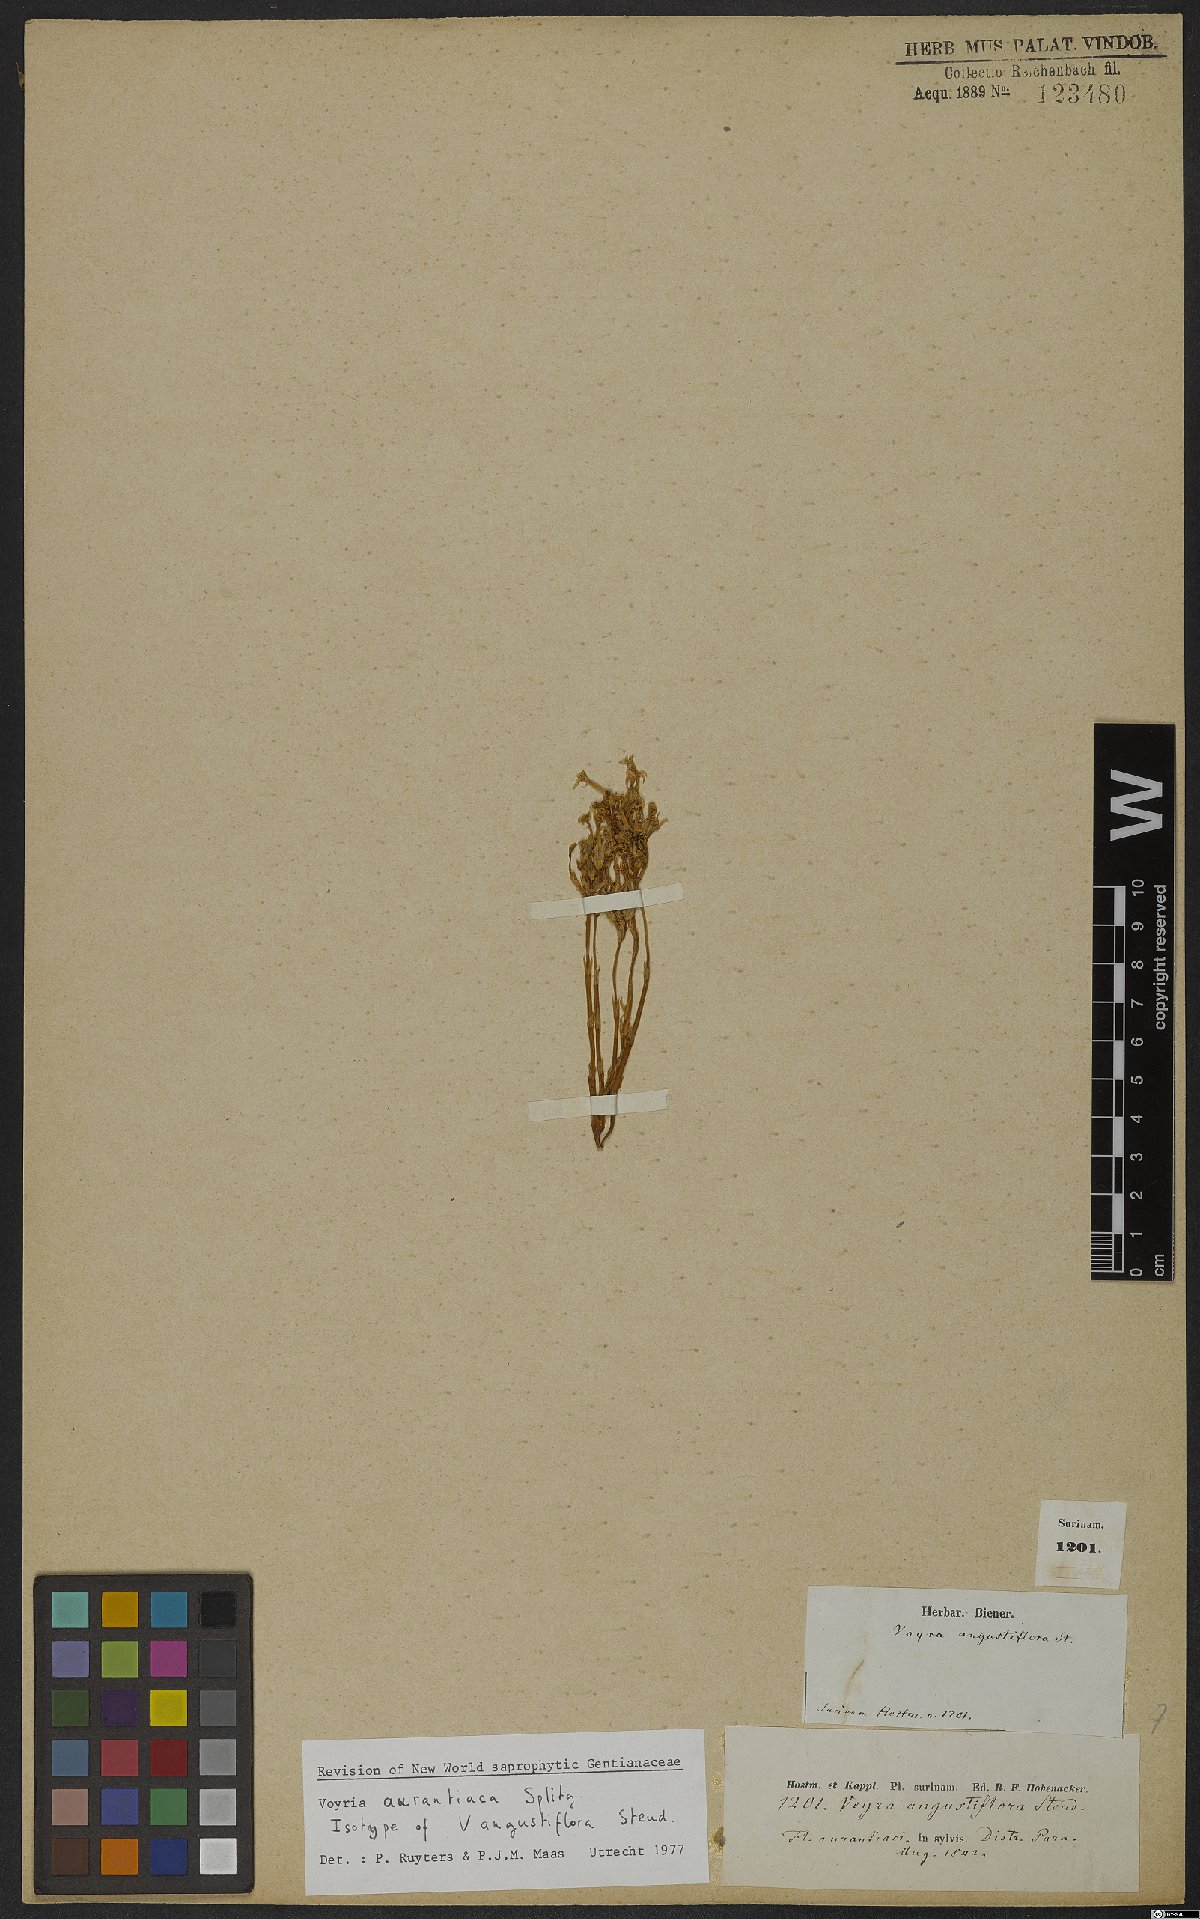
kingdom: Plantae
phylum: Tracheophyta
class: Magnoliopsida
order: Gentianales
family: Gentianaceae
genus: Voyria
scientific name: Voyria aurantiaca
